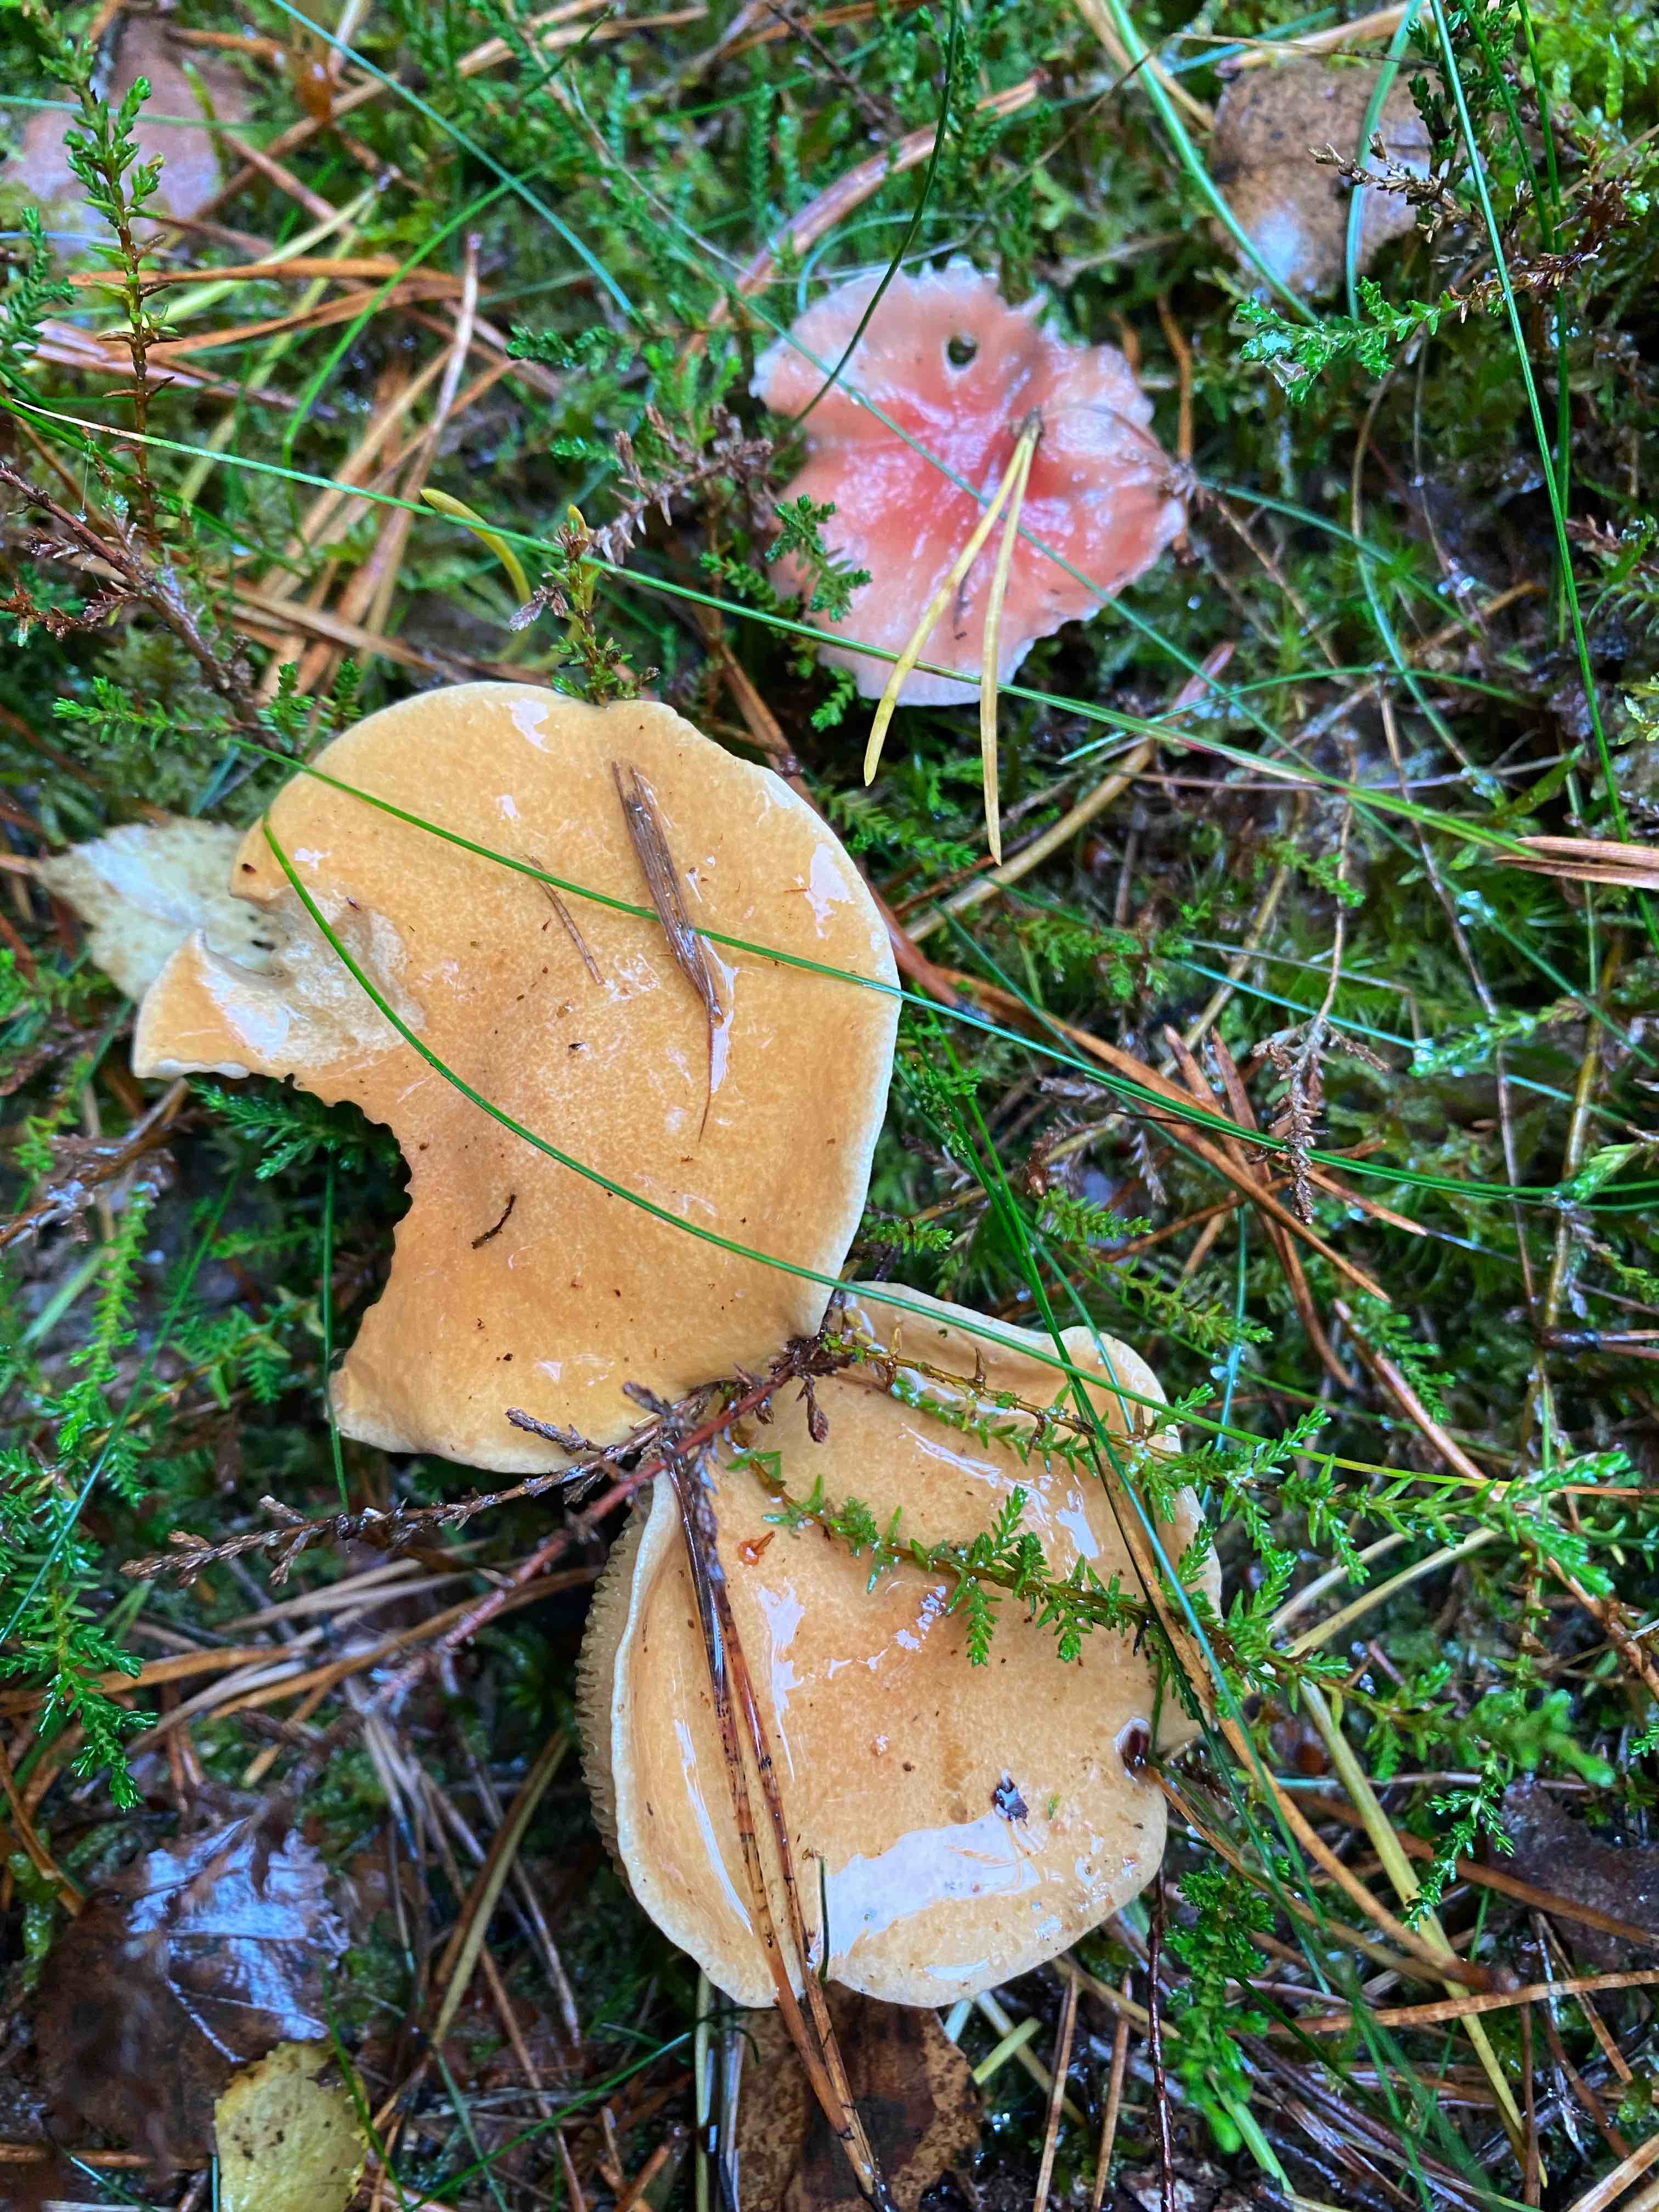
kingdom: Fungi
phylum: Basidiomycota
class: Agaricomycetes
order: Boletales
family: Gomphidiaceae
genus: Gomphidius
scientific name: Gomphidius roseus
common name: rosenrød slimslør
